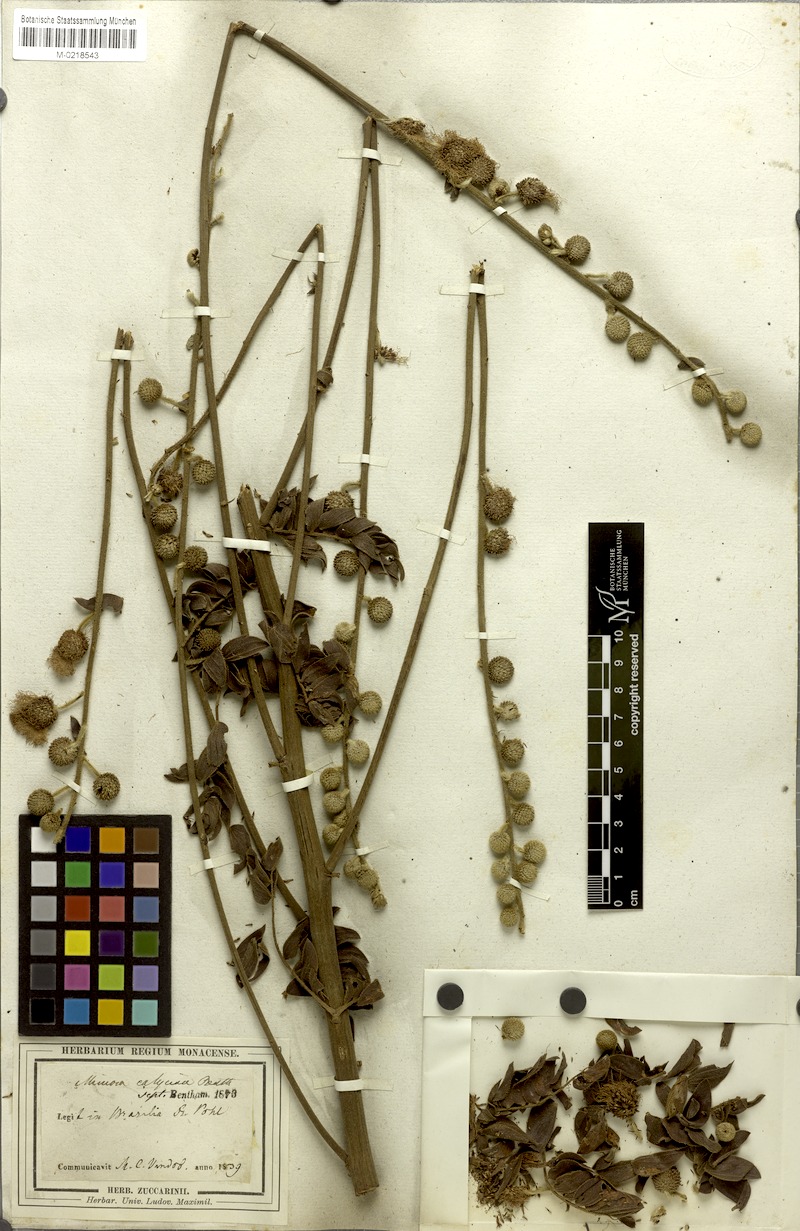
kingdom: Plantae
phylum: Tracheophyta
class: Magnoliopsida
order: Fabales
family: Fabaceae
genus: Mimosa
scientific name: Mimosa radula
